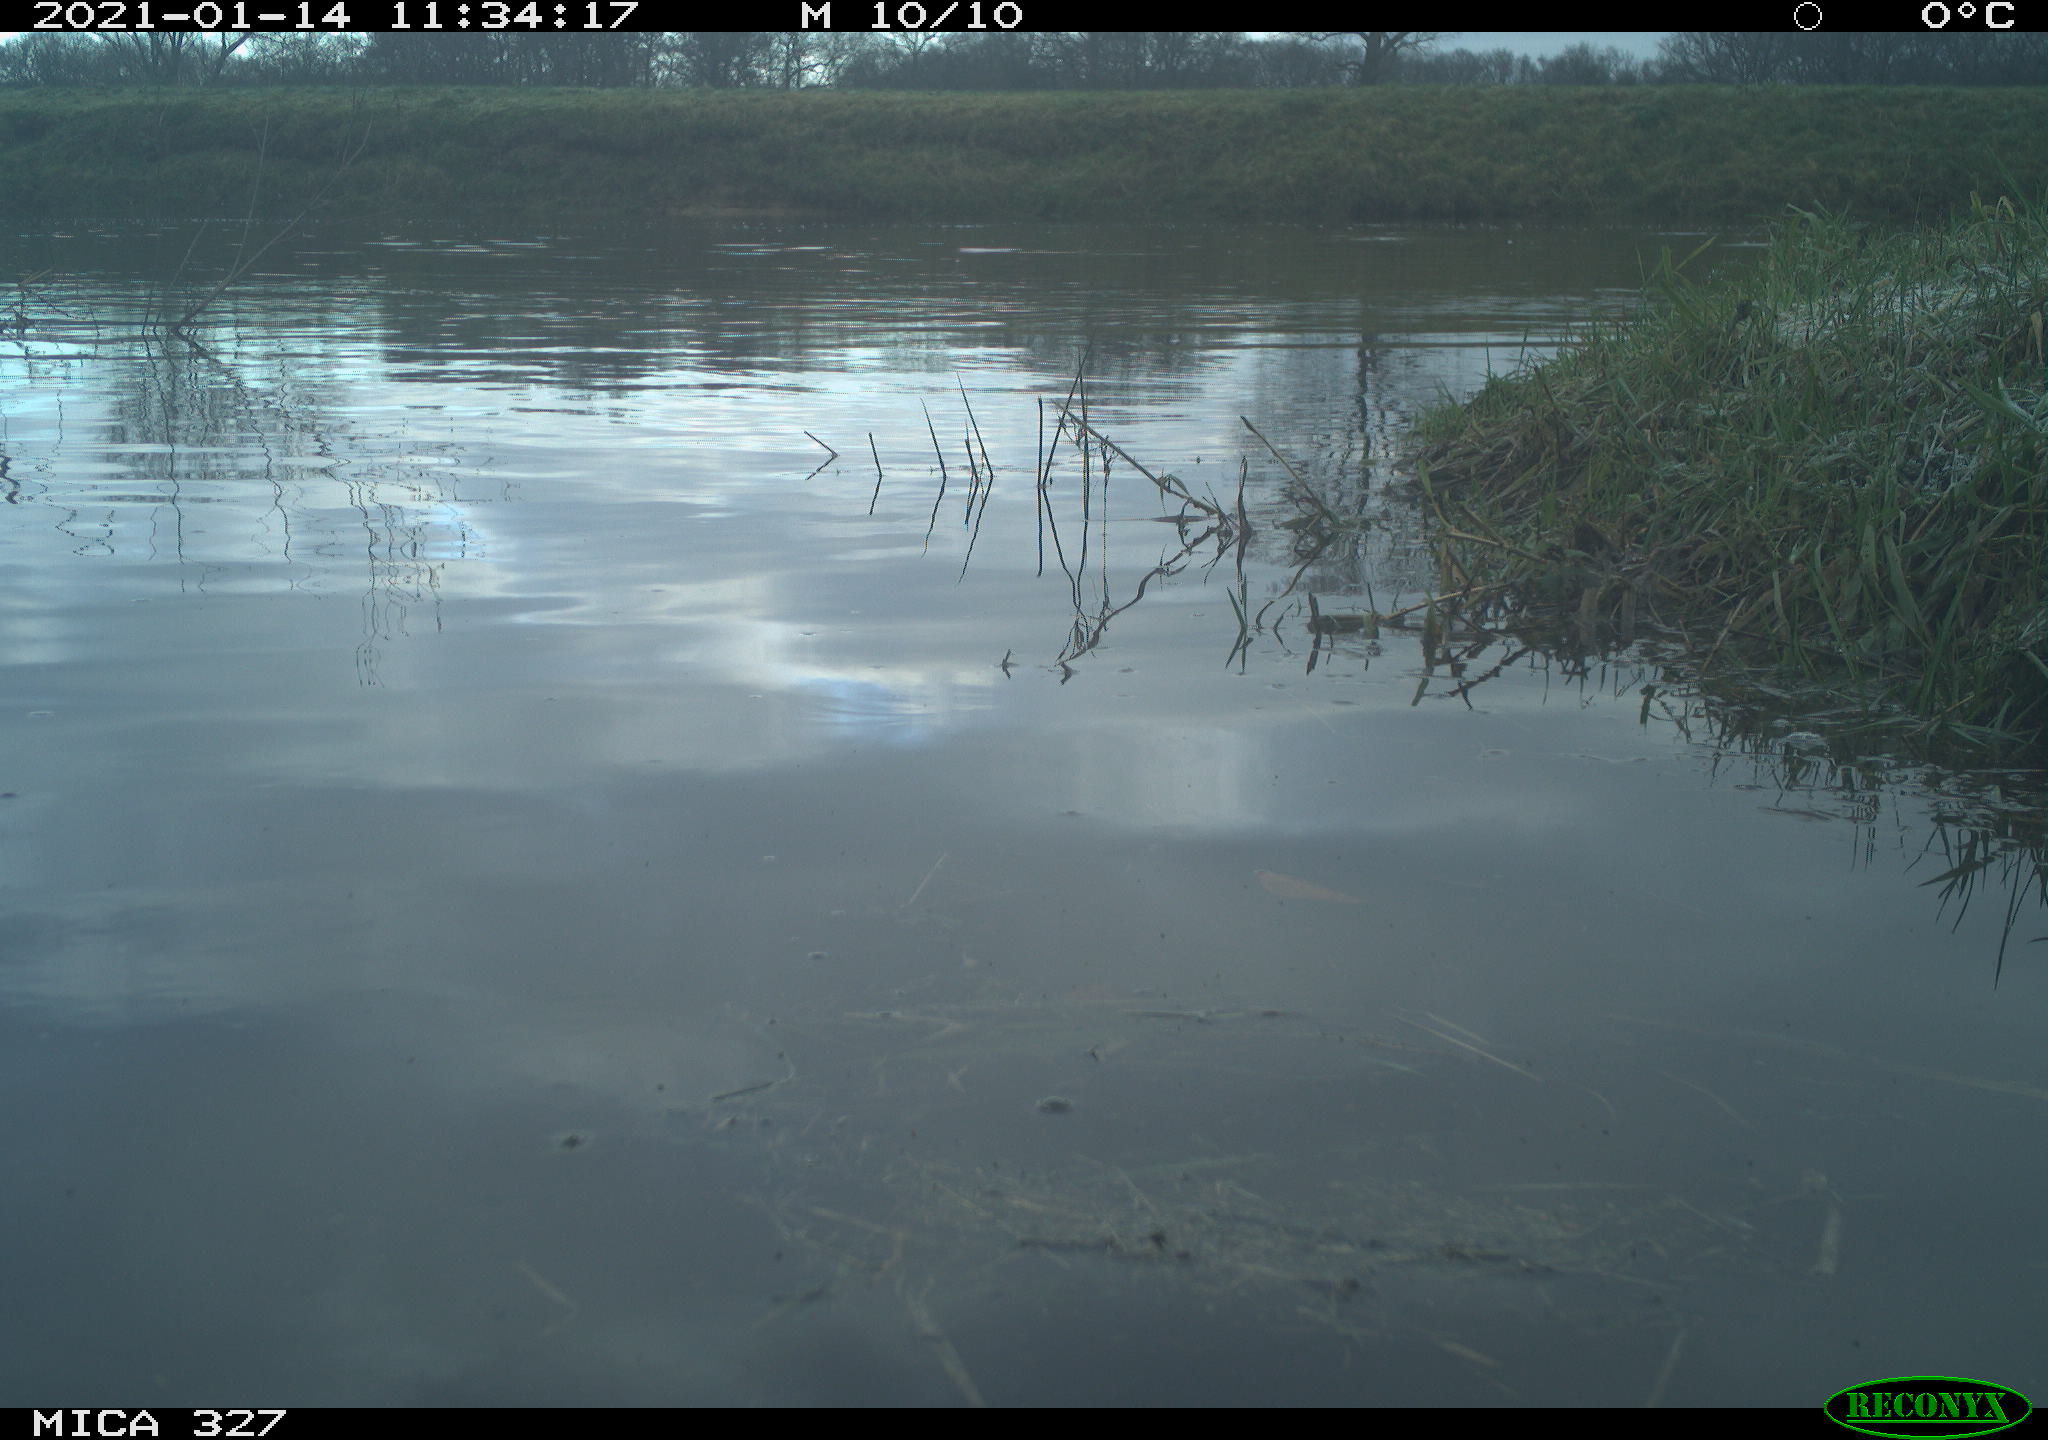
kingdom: Animalia
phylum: Chordata
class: Aves
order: Pelecaniformes
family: Ardeidae
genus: Ardea
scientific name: Ardea cinerea
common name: Grey heron
